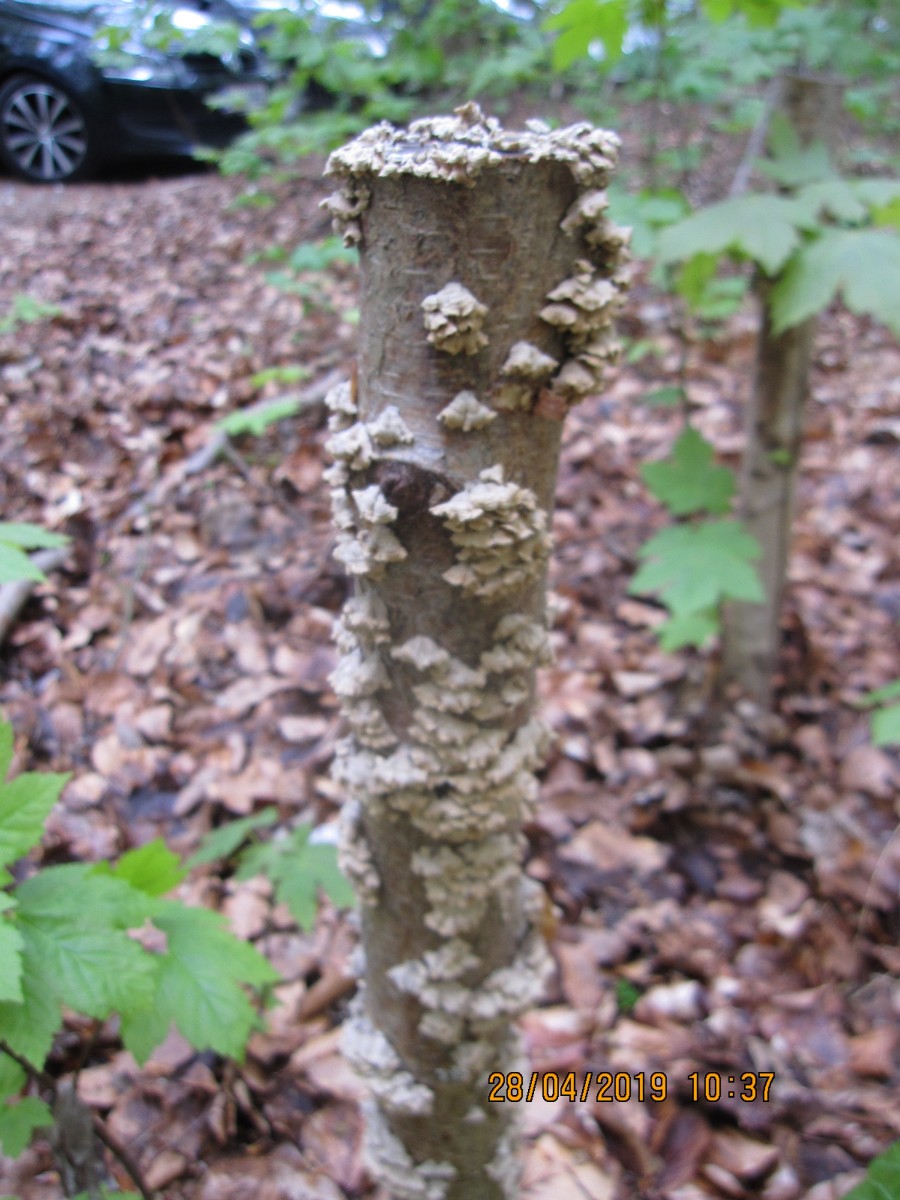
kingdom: Fungi
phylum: Basidiomycota
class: Agaricomycetes
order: Amylocorticiales
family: Amylocorticiaceae
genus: Plicaturopsis
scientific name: Plicaturopsis crispa
